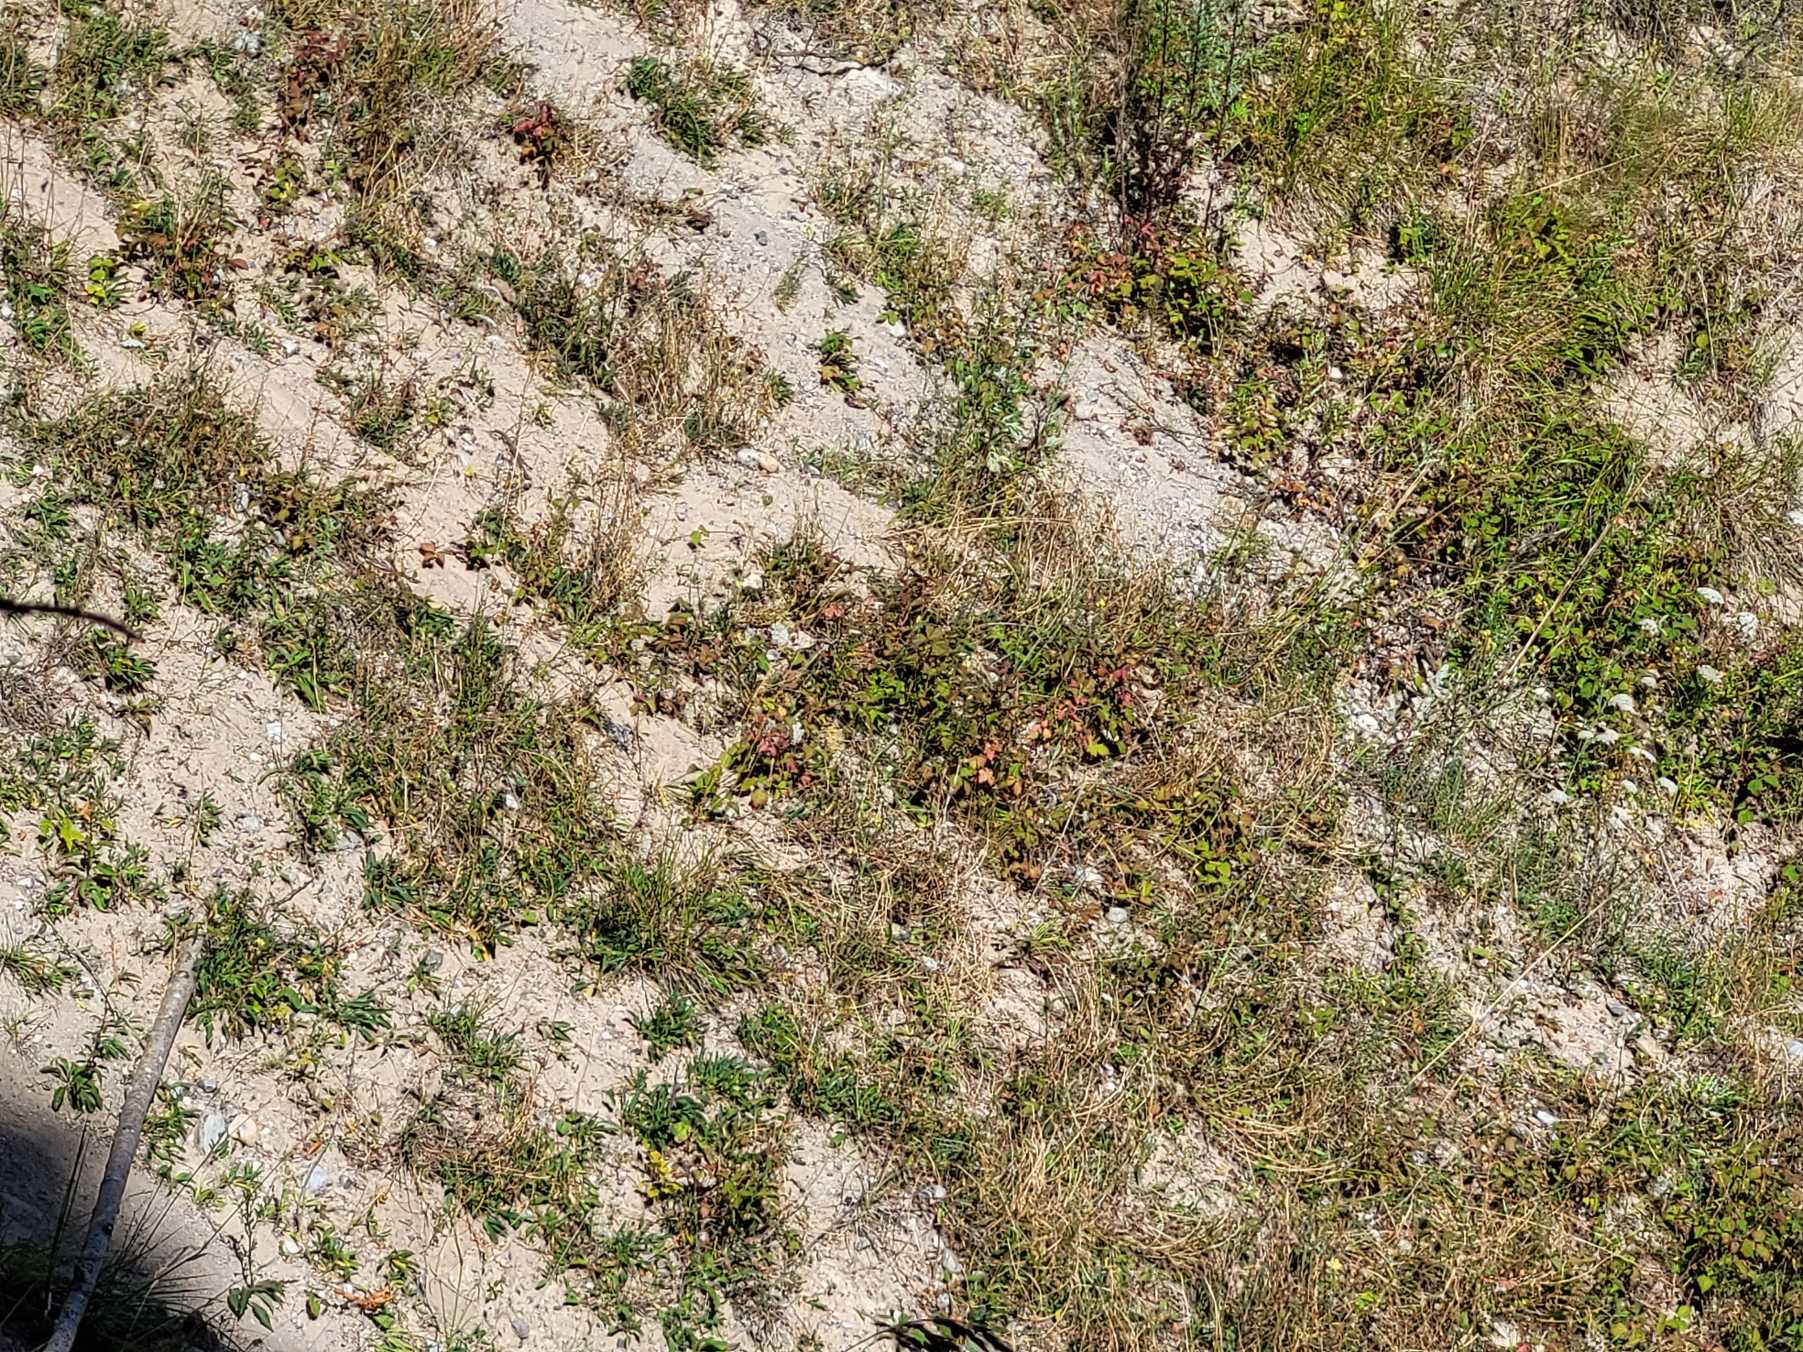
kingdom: Animalia
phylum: Arthropoda
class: Insecta
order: Lepidoptera
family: Nymphalidae
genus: Argynnis
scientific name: Argynnis paphia
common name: Kejserkåbe
